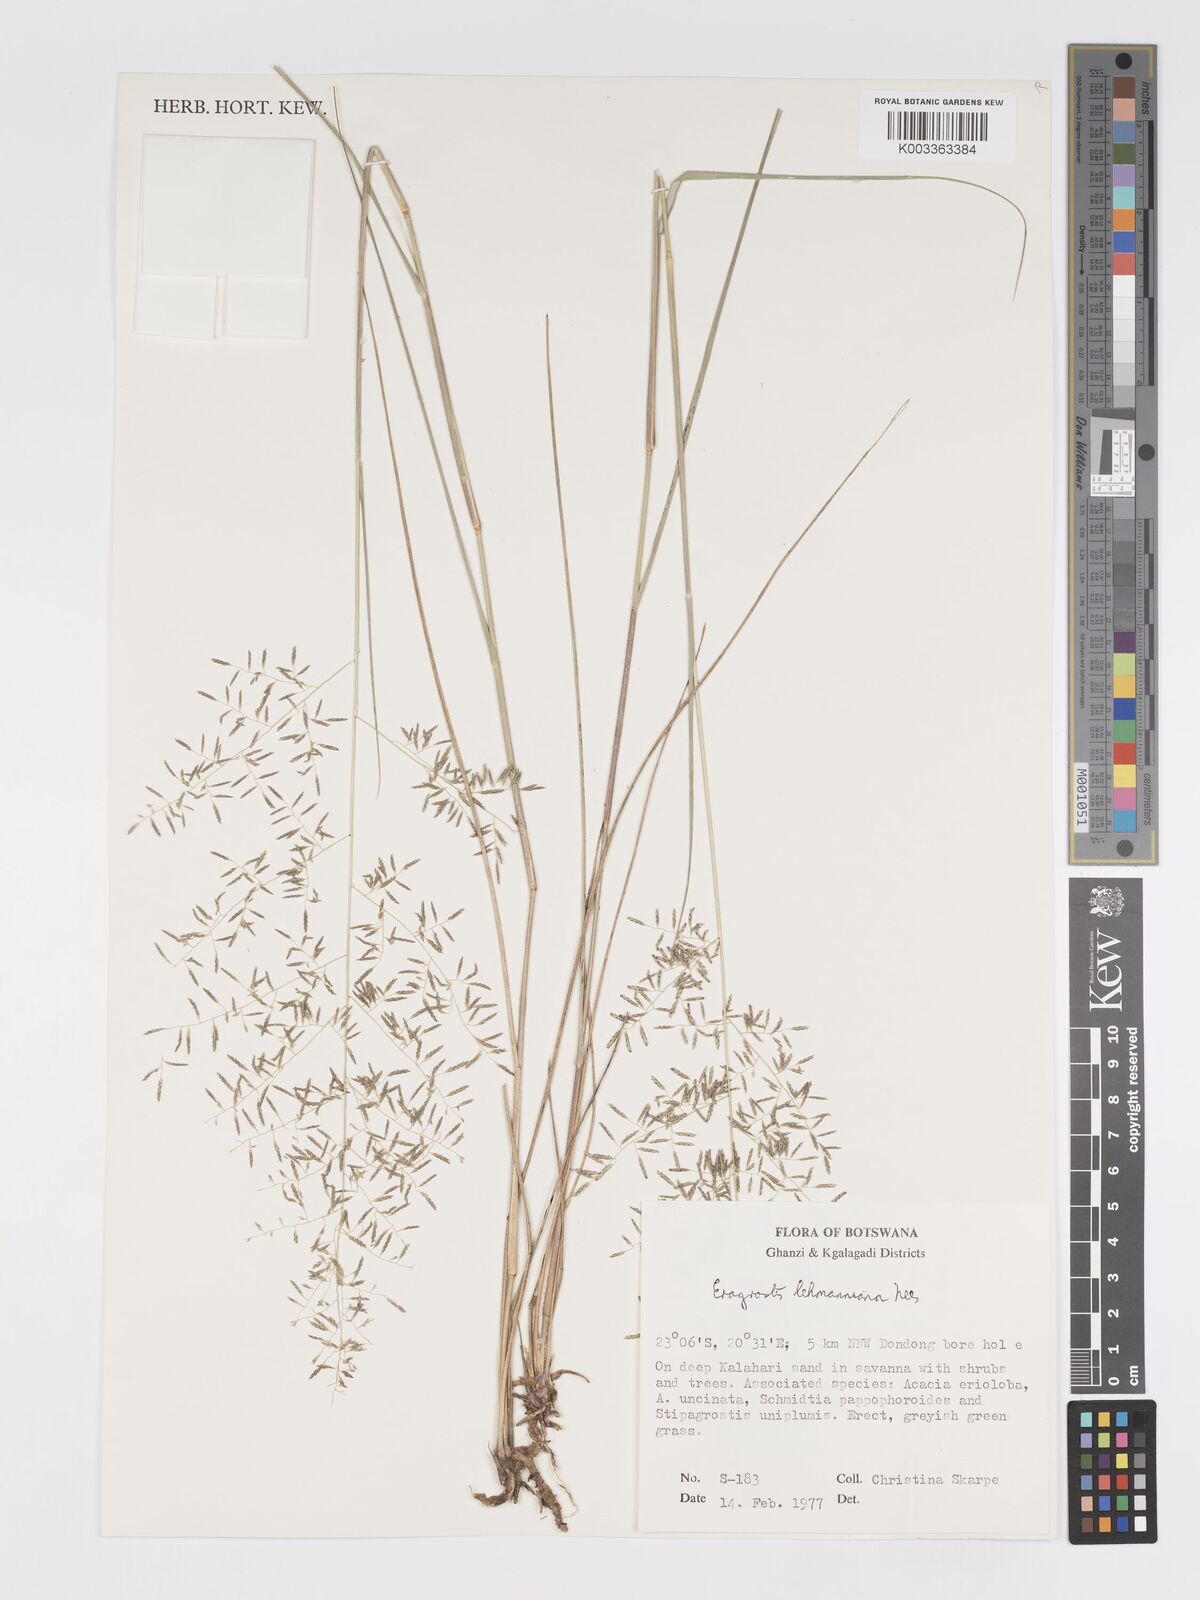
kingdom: Plantae
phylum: Tracheophyta
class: Liliopsida
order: Poales
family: Poaceae
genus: Eragrostis
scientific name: Eragrostis lehmanniana
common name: Lehmann lovegrass
